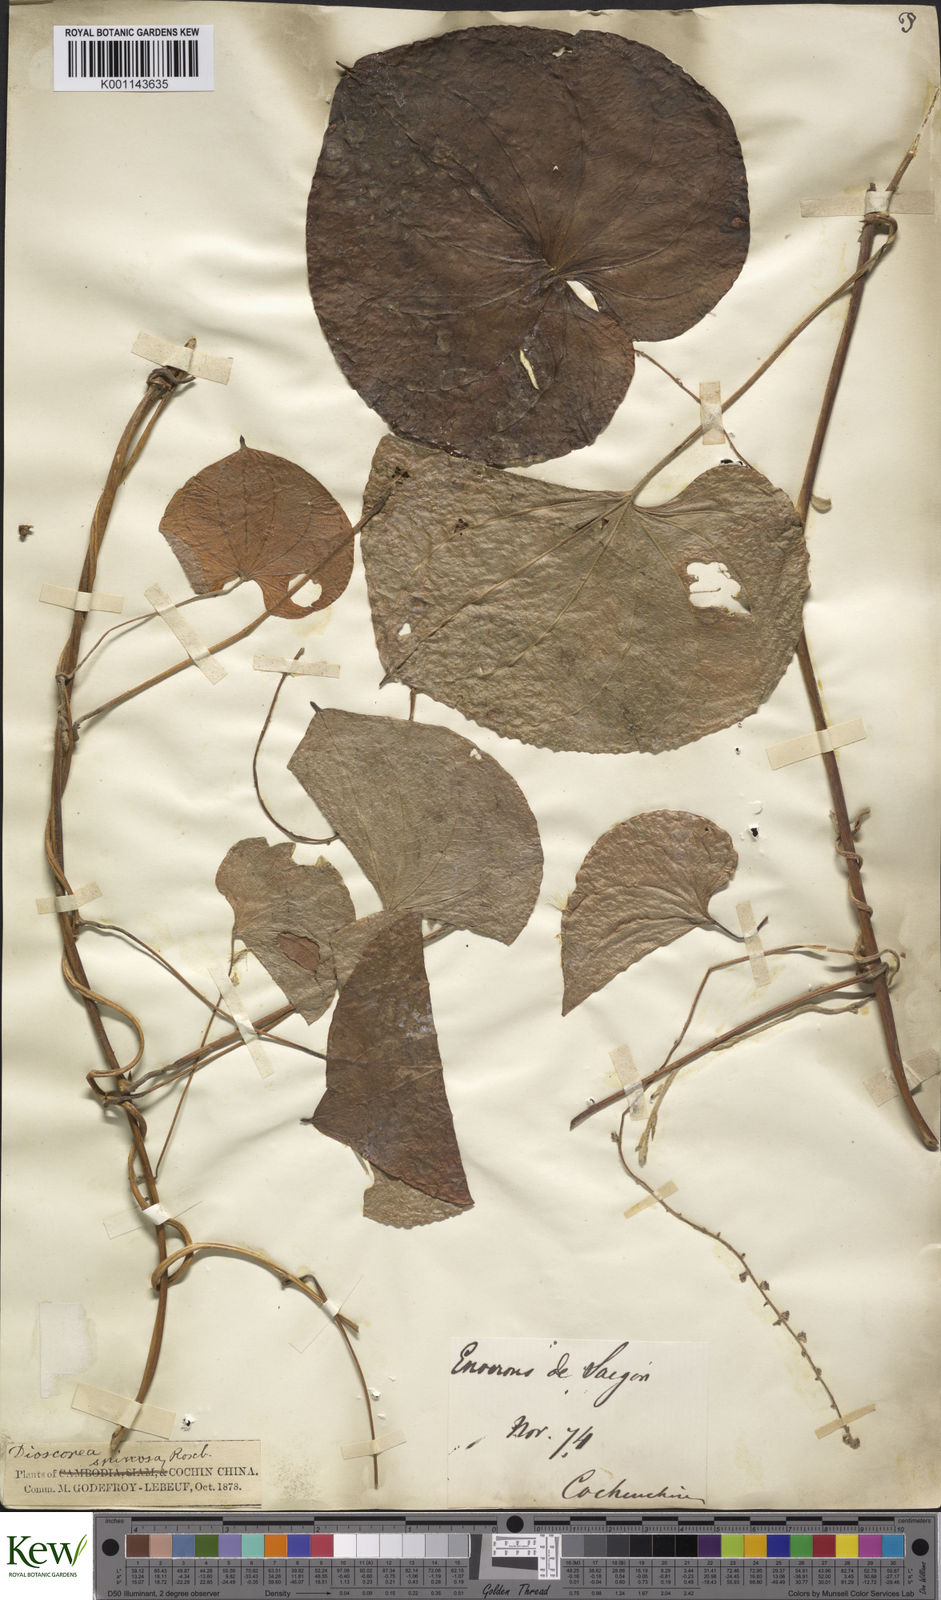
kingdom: Plantae
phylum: Tracheophyta
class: Liliopsida
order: Dioscoreales
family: Dioscoreaceae
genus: Dioscorea
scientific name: Dioscorea esculenta
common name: Chinese yam
